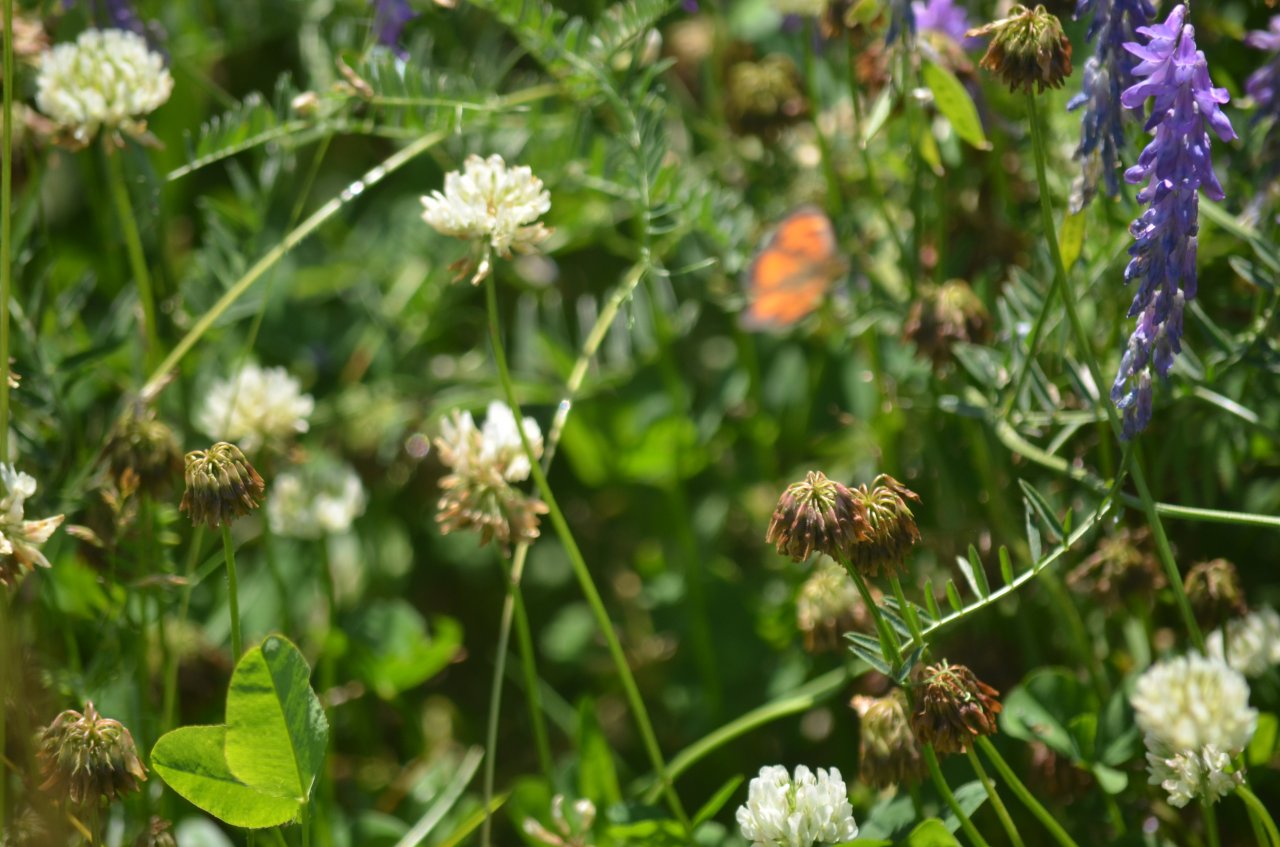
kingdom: Animalia
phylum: Arthropoda
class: Insecta
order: Lepidoptera
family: Nymphalidae
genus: Phyciodes
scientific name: Phyciodes tharos
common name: Northern Crescent
